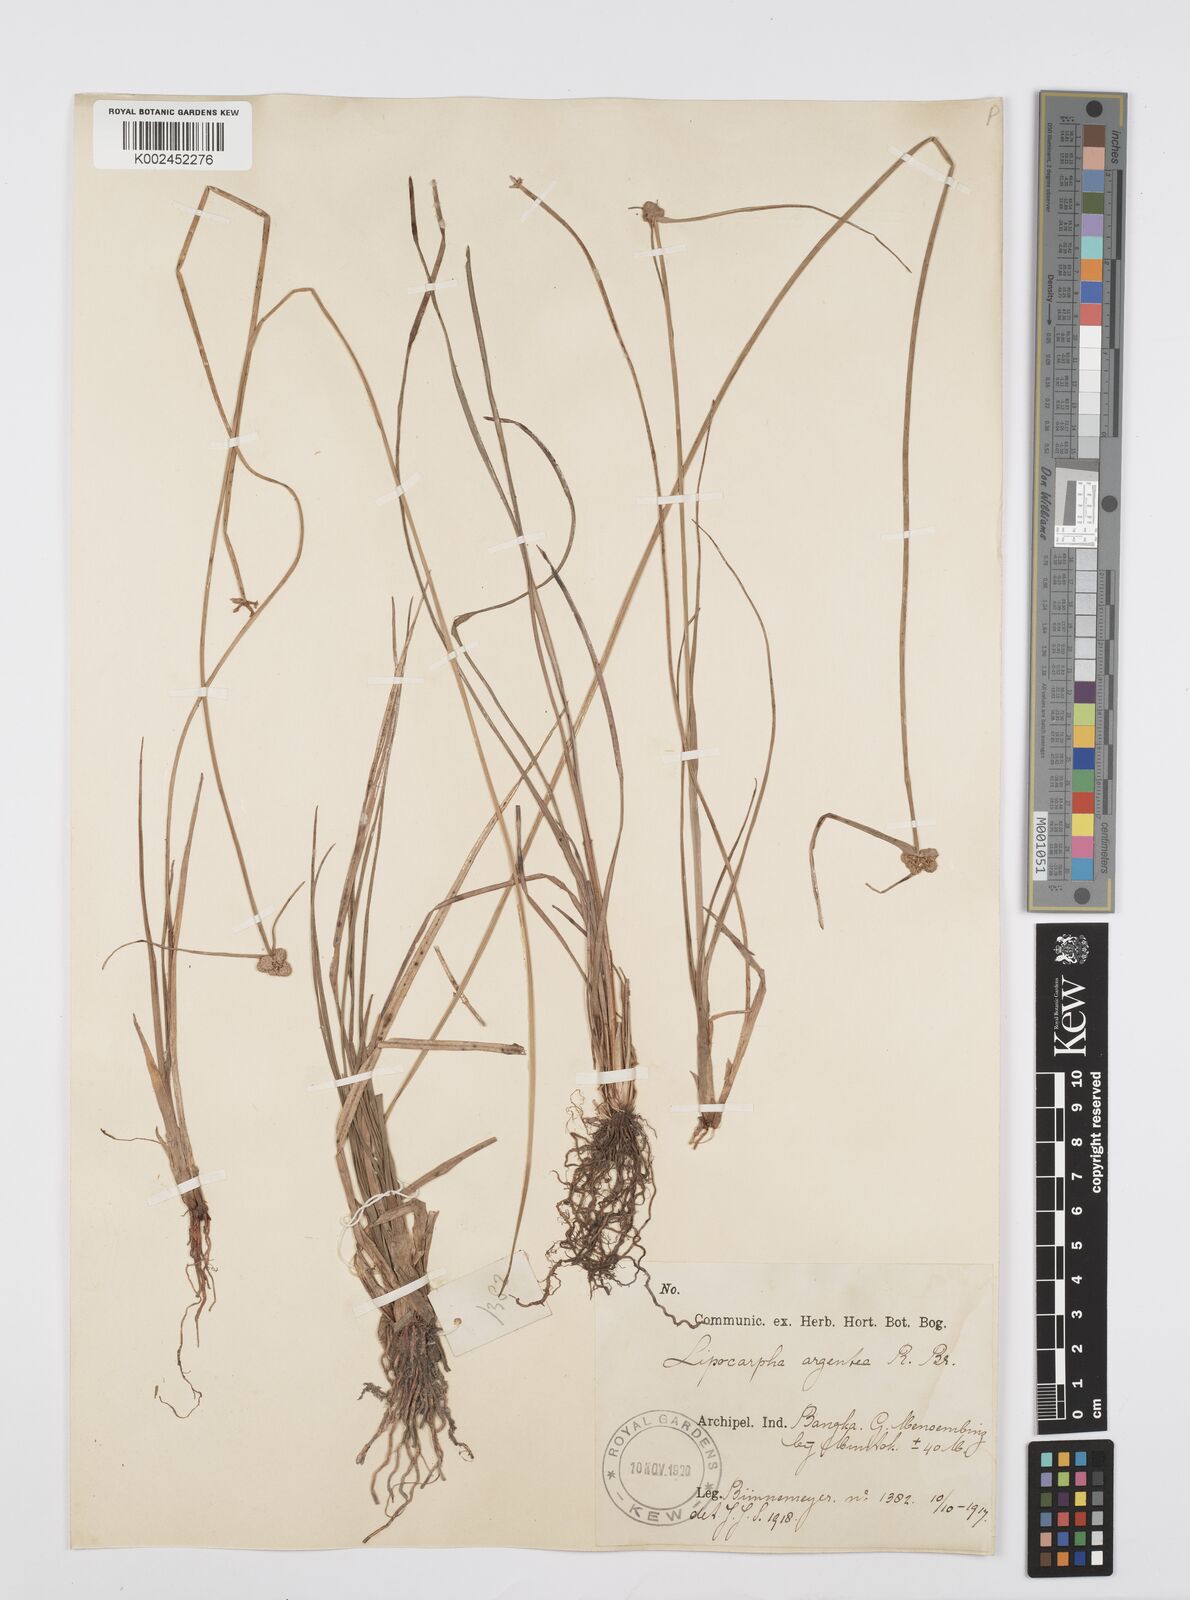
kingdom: Plantae
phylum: Tracheophyta
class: Liliopsida
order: Poales
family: Cyperaceae
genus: Cyperus
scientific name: Cyperus
